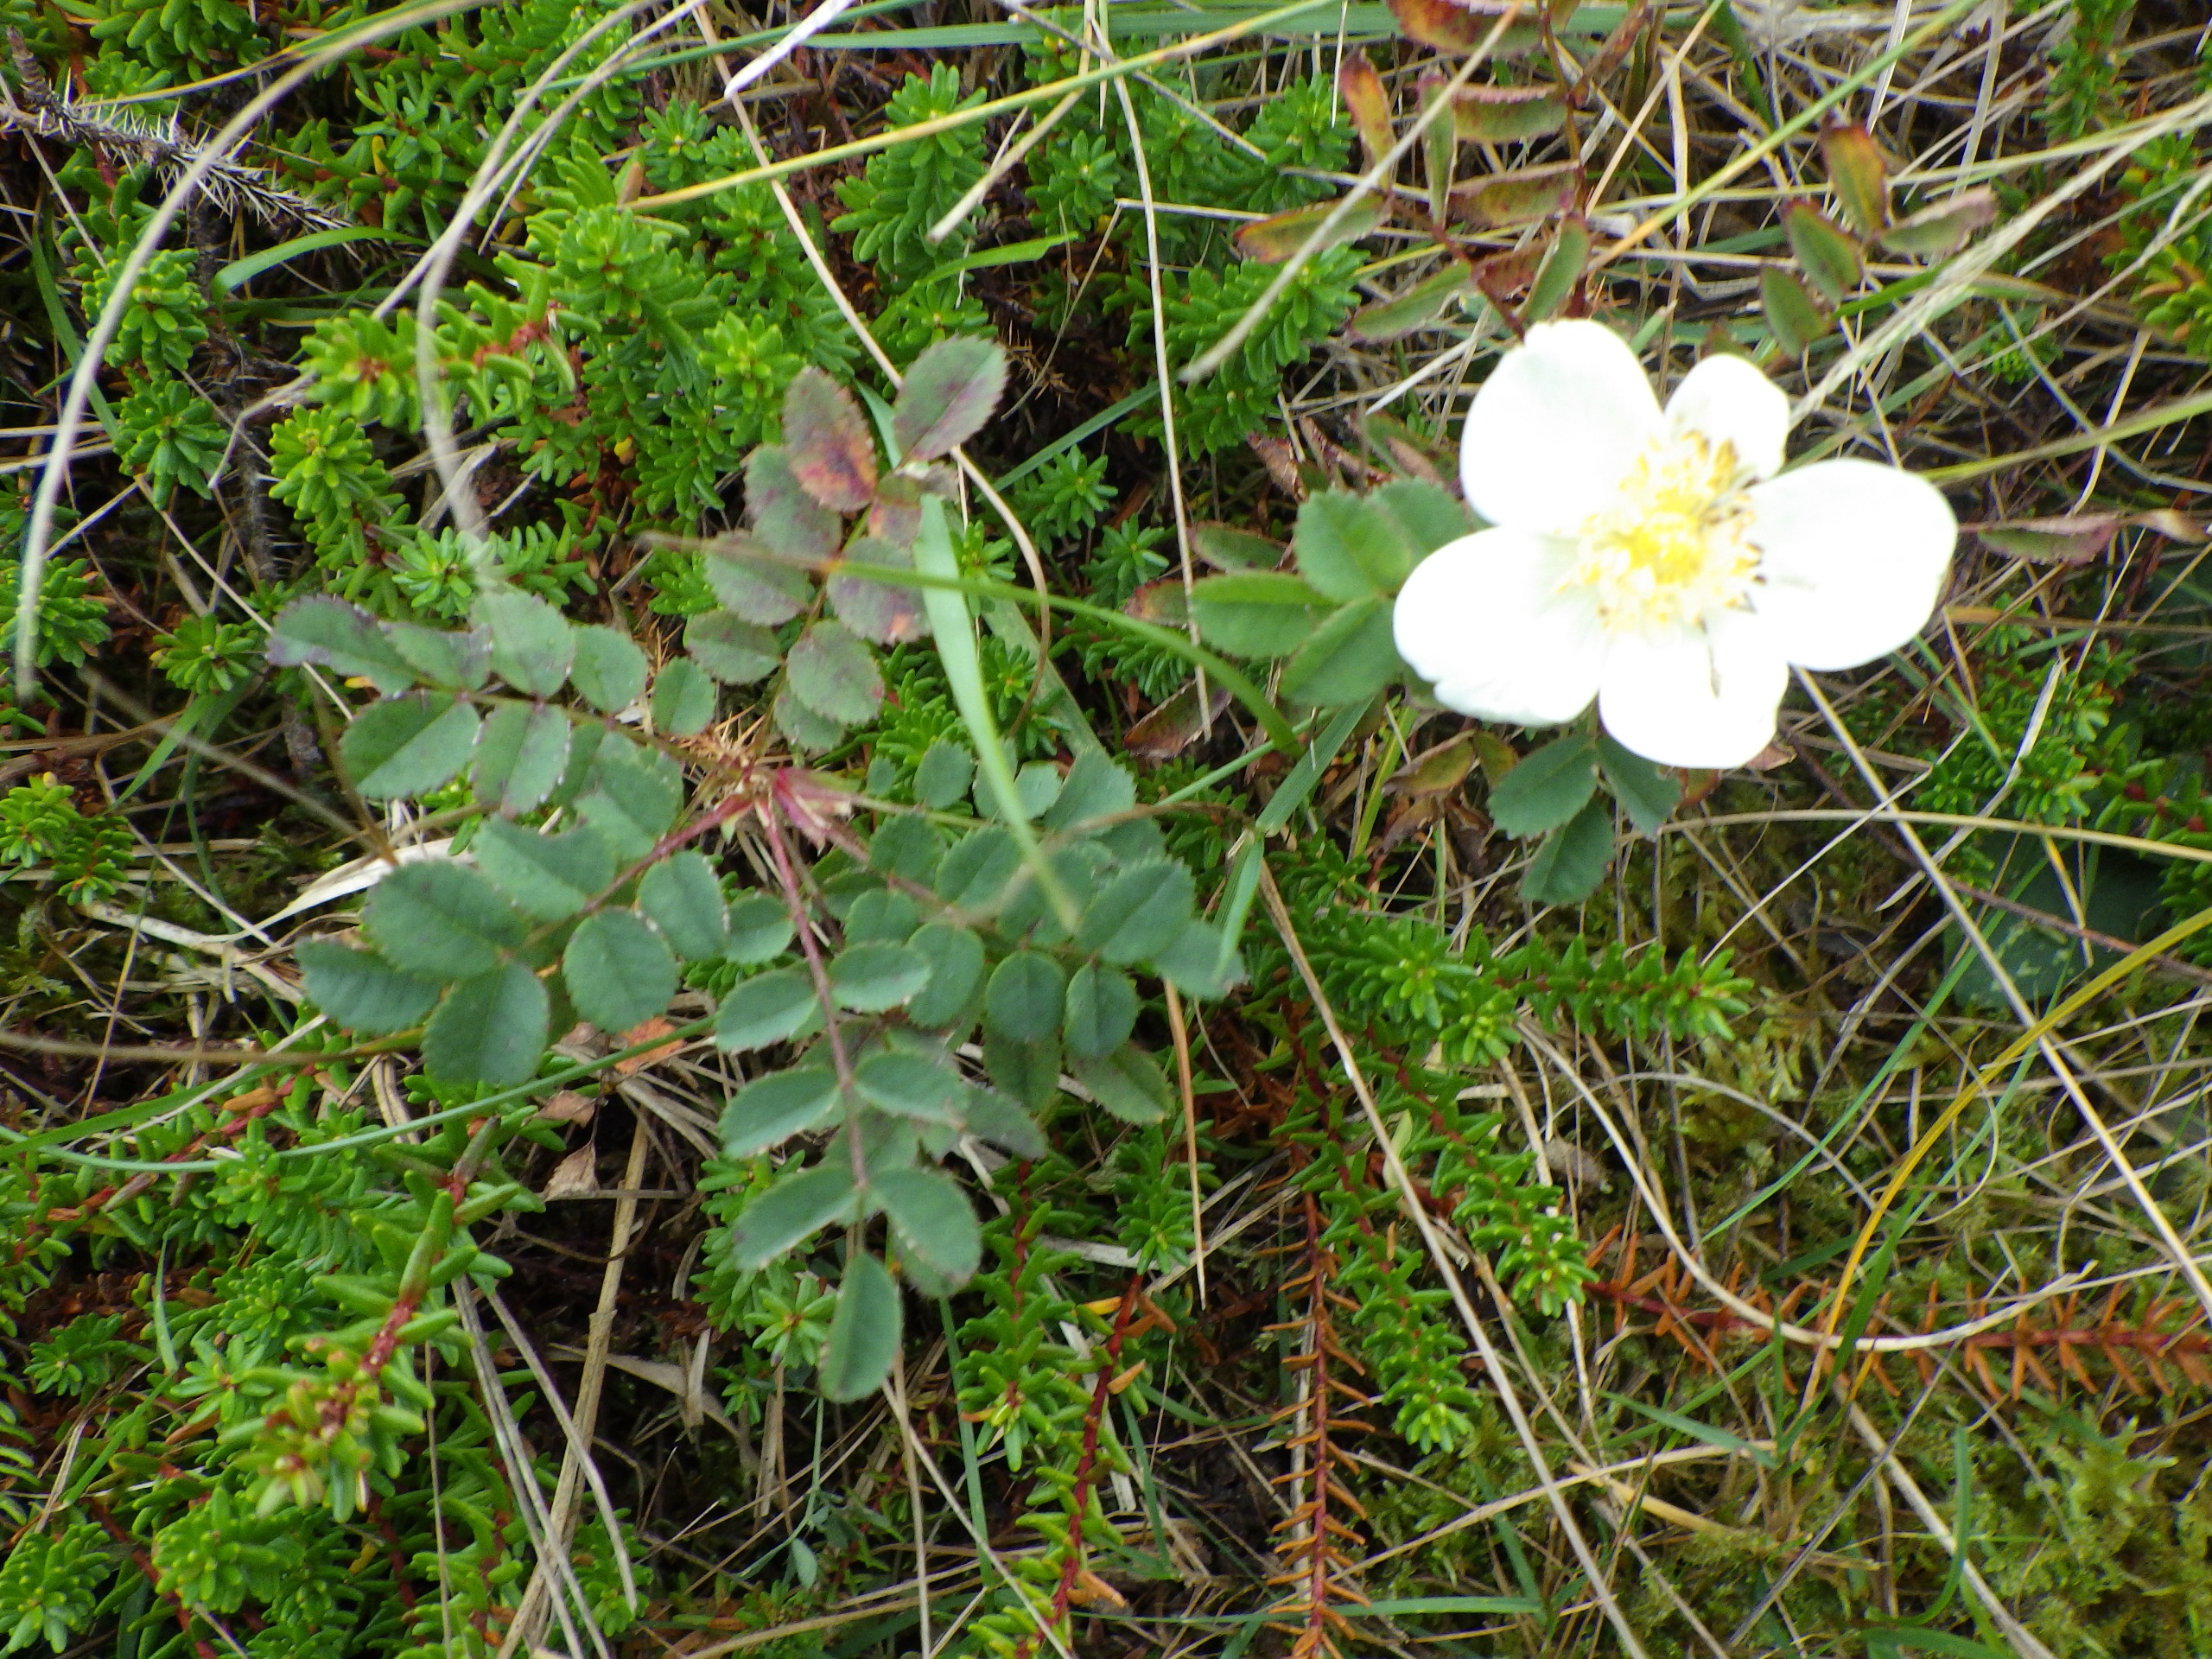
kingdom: Plantae
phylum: Tracheophyta
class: Magnoliopsida
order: Rosales
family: Rosaceae
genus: Rosa
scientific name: Rosa spinosissima
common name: Klit-rose
